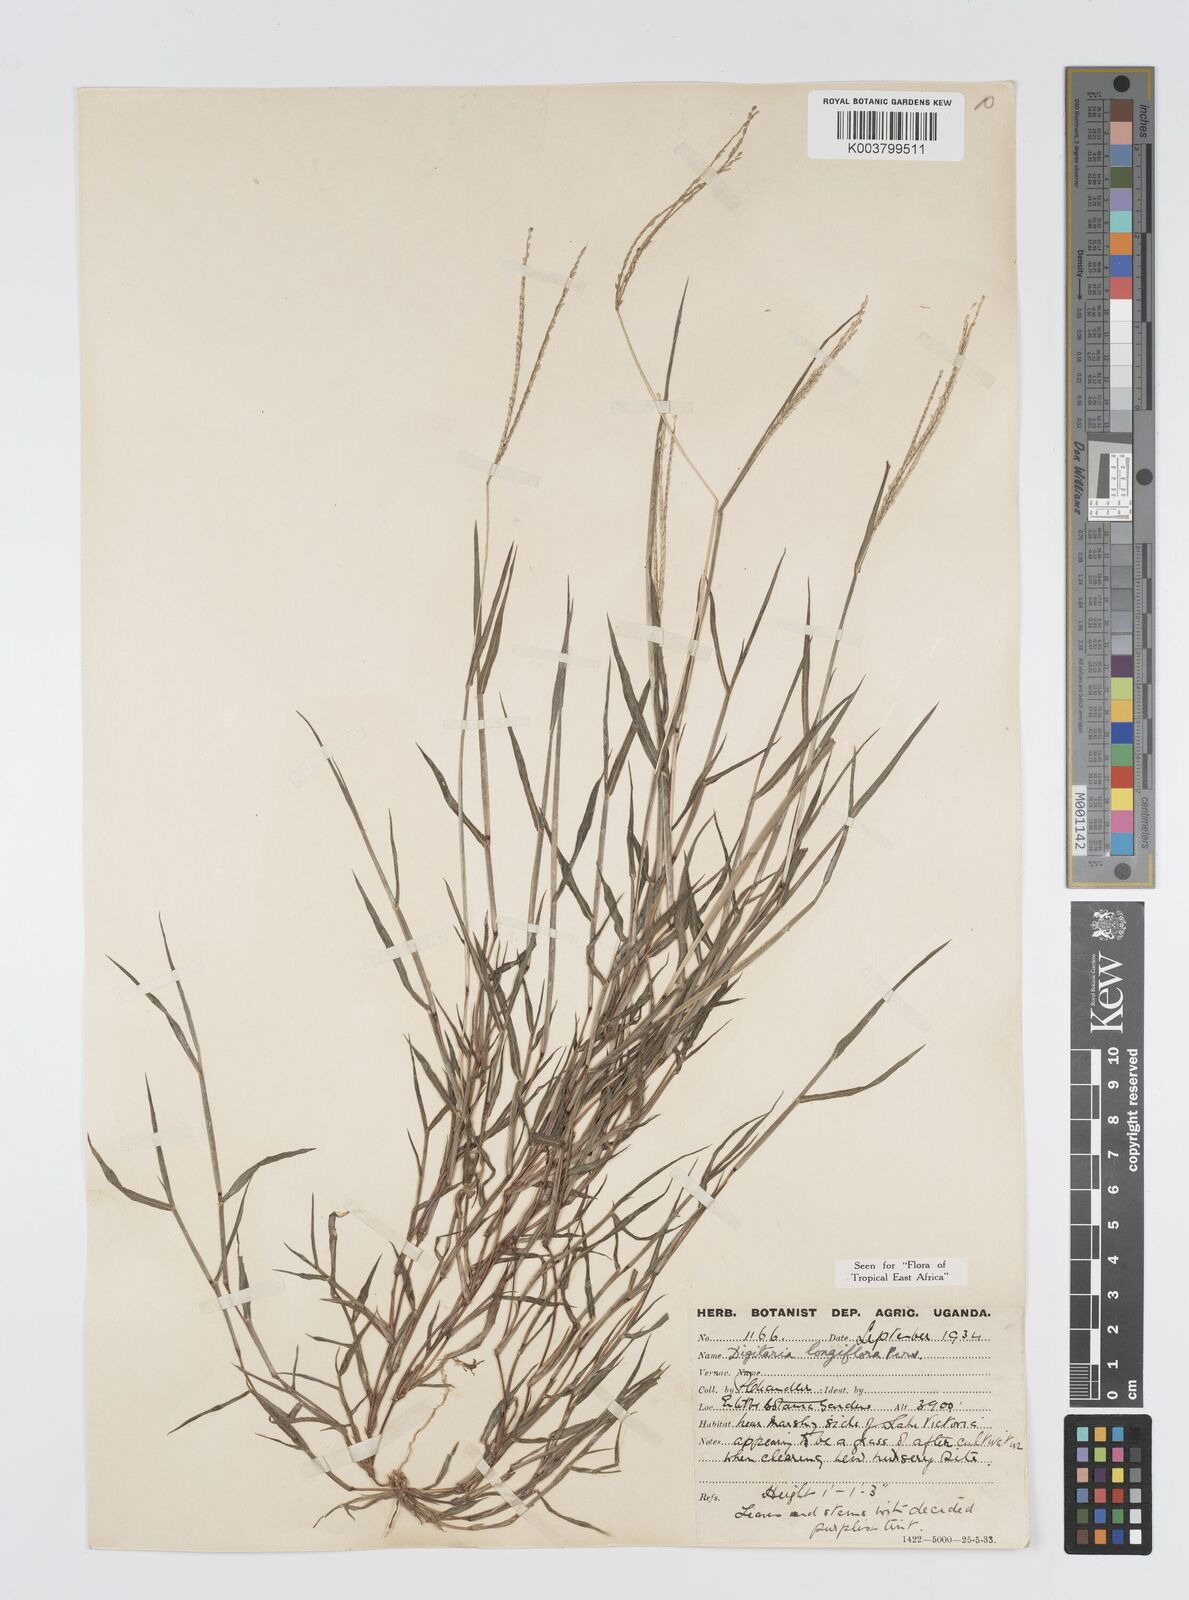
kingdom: Plantae
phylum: Tracheophyta
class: Liliopsida
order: Poales
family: Poaceae
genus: Digitaria
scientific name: Digitaria longiflora
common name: Wire crabgrass
